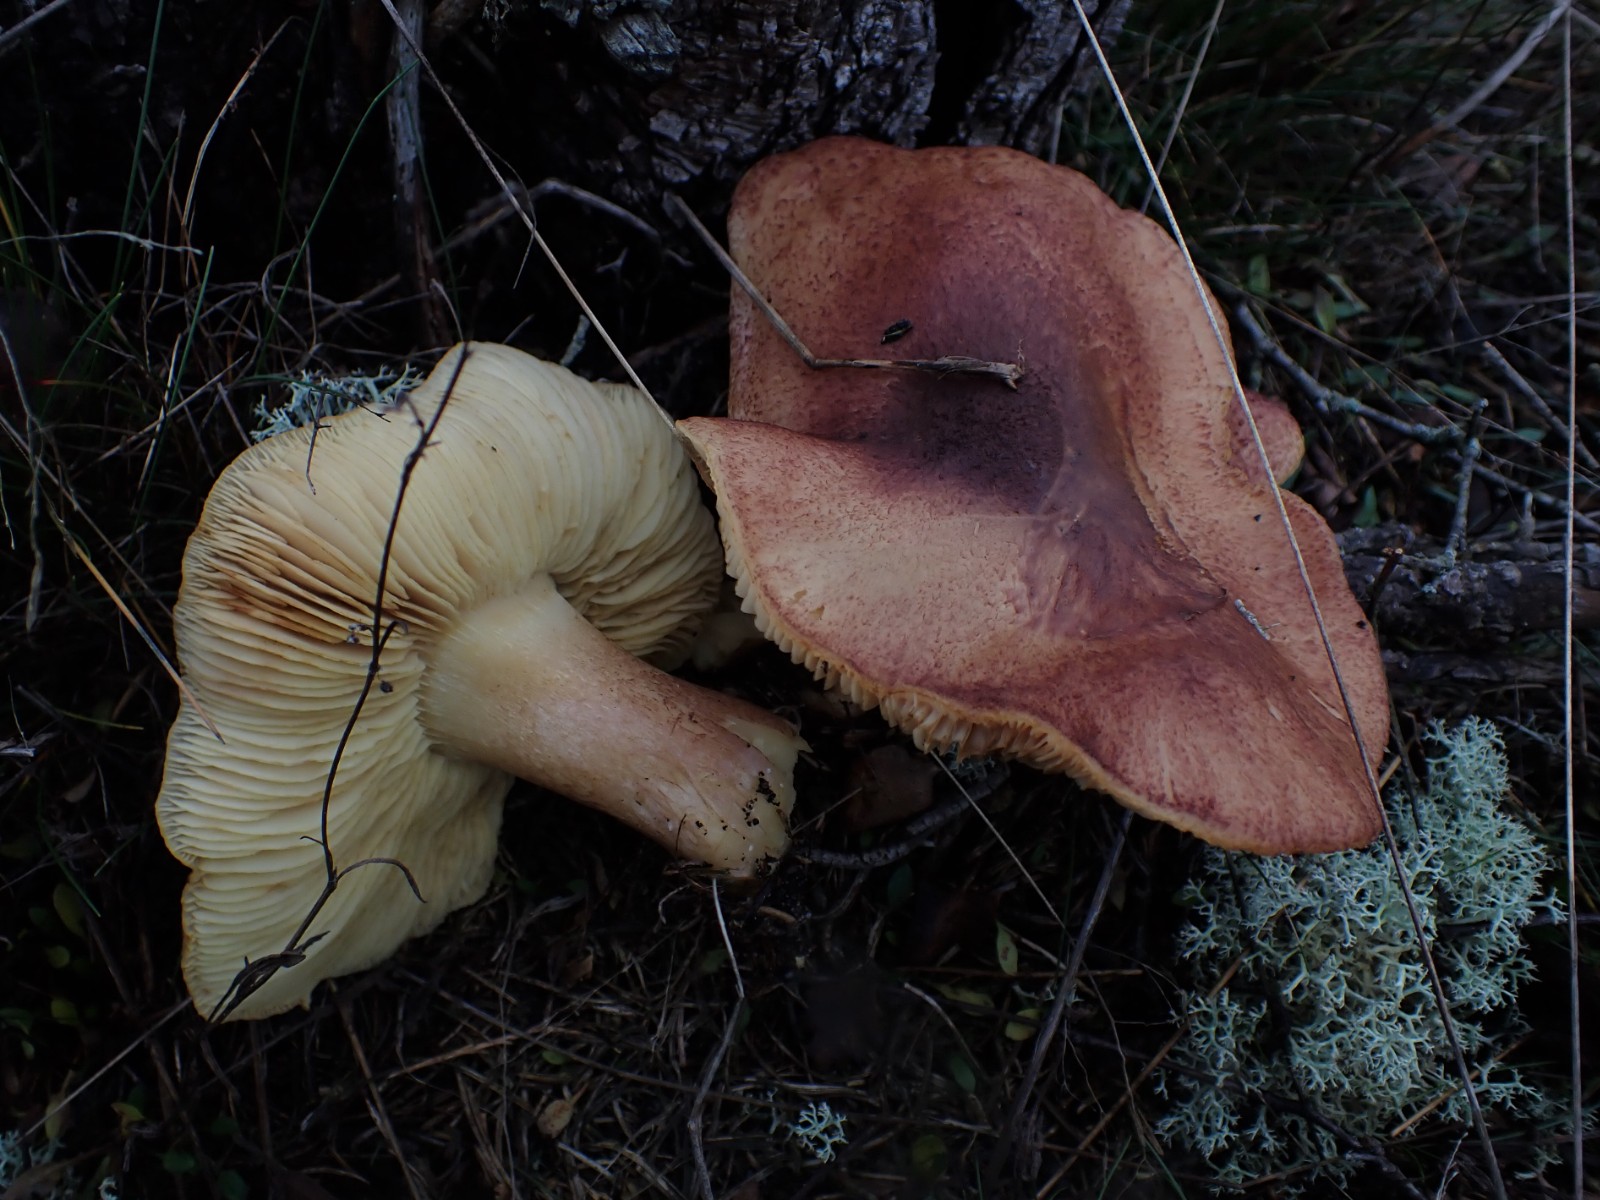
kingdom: Fungi
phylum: Basidiomycota
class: Agaricomycetes
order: Agaricales
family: Tricholomataceae
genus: Tricholomopsis
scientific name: Tricholomopsis rutilans
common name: purpur-væbnerhat
